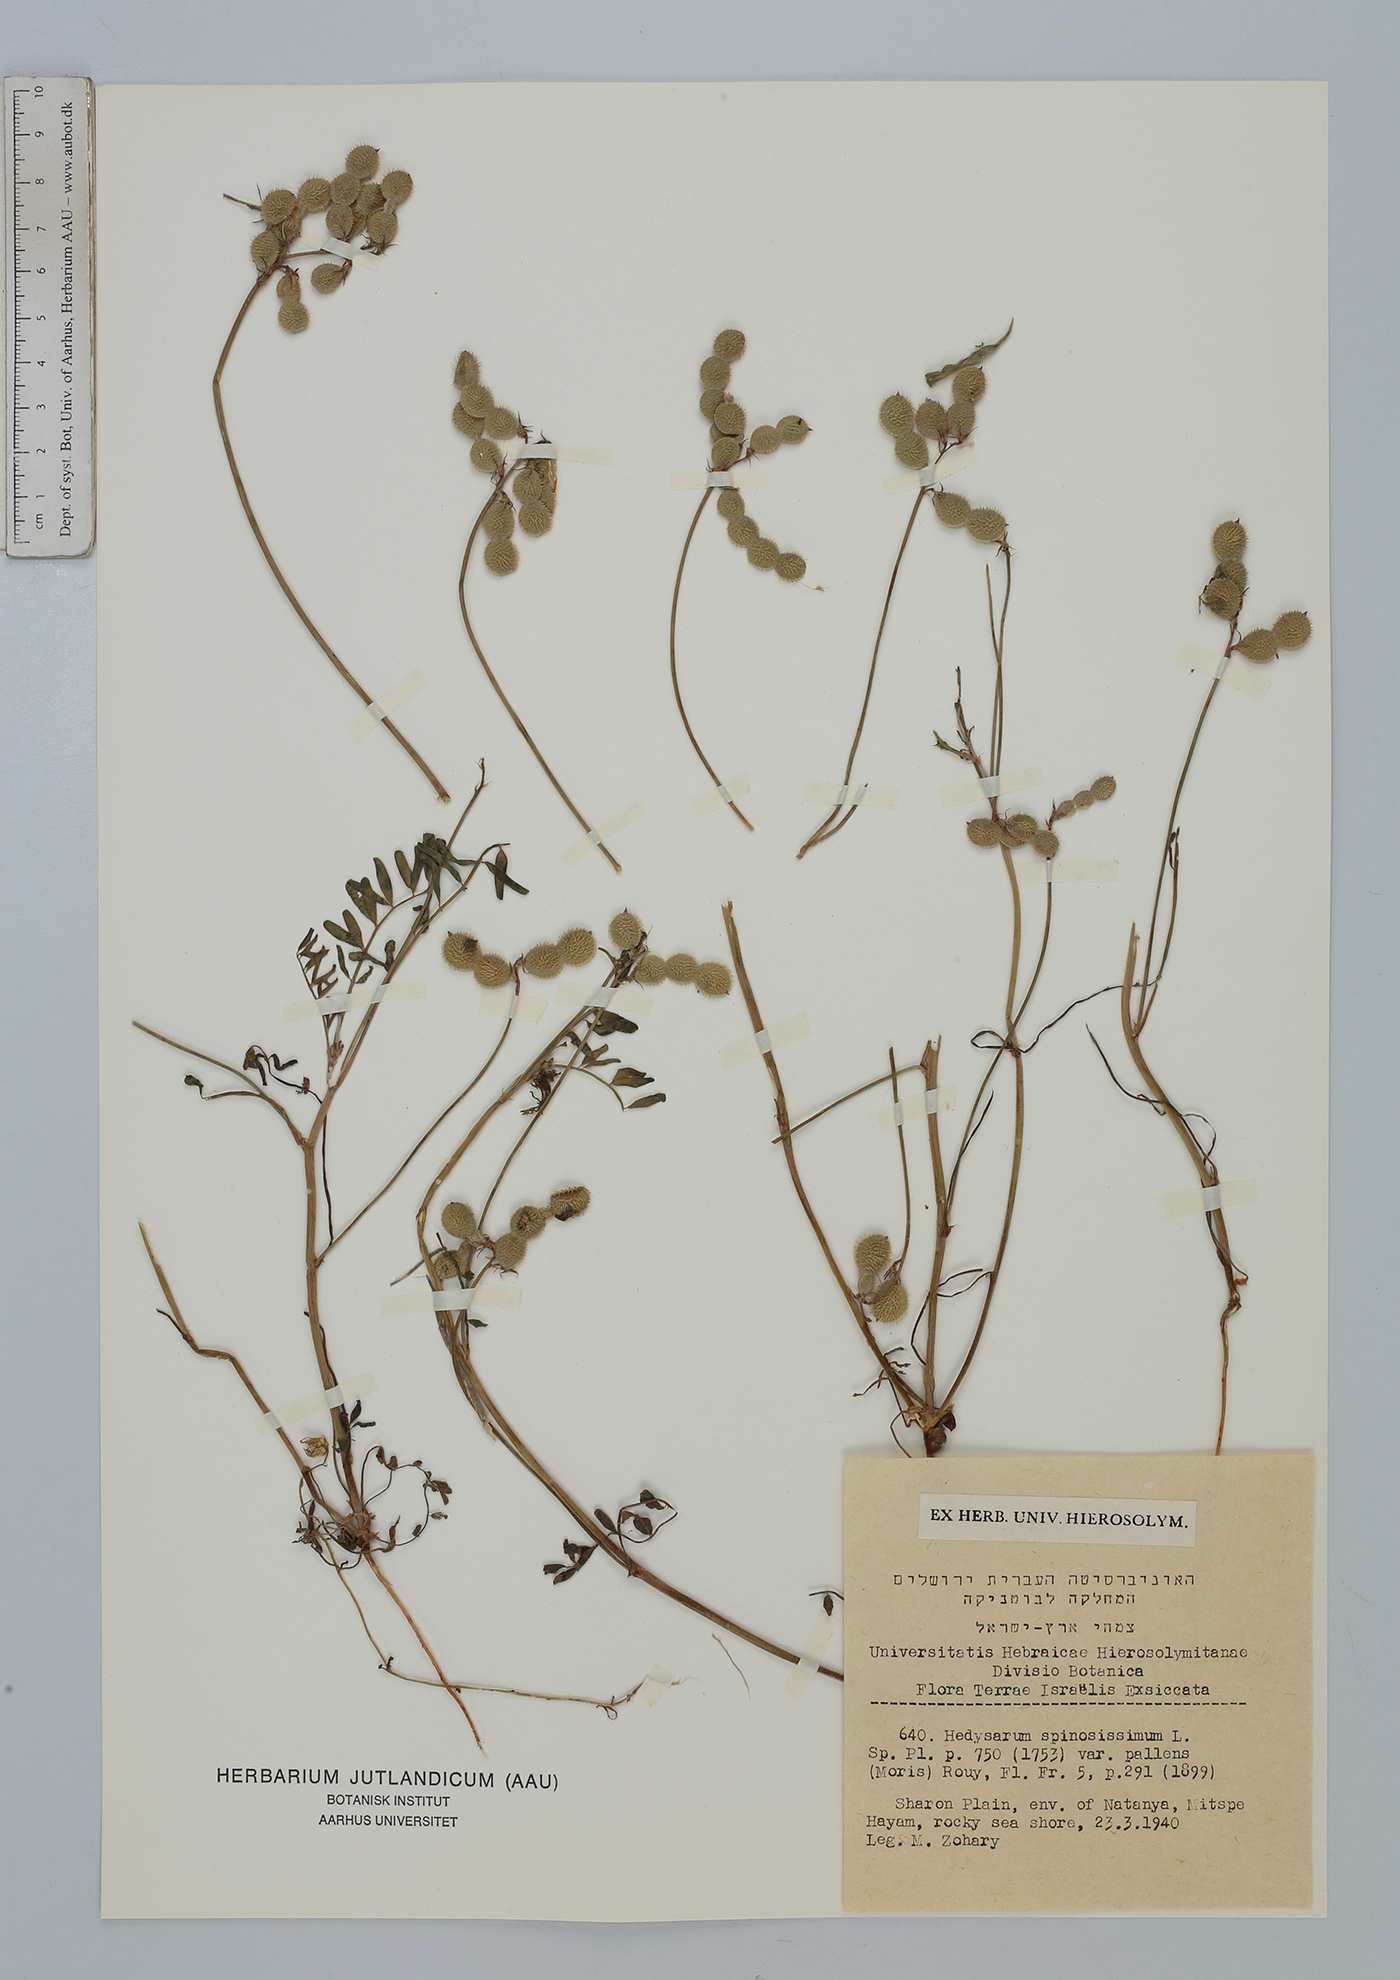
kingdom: Plantae
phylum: Tracheophyta
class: Magnoliopsida
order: Fabales
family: Fabaceae
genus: Sulla
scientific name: Sulla spinosissima
